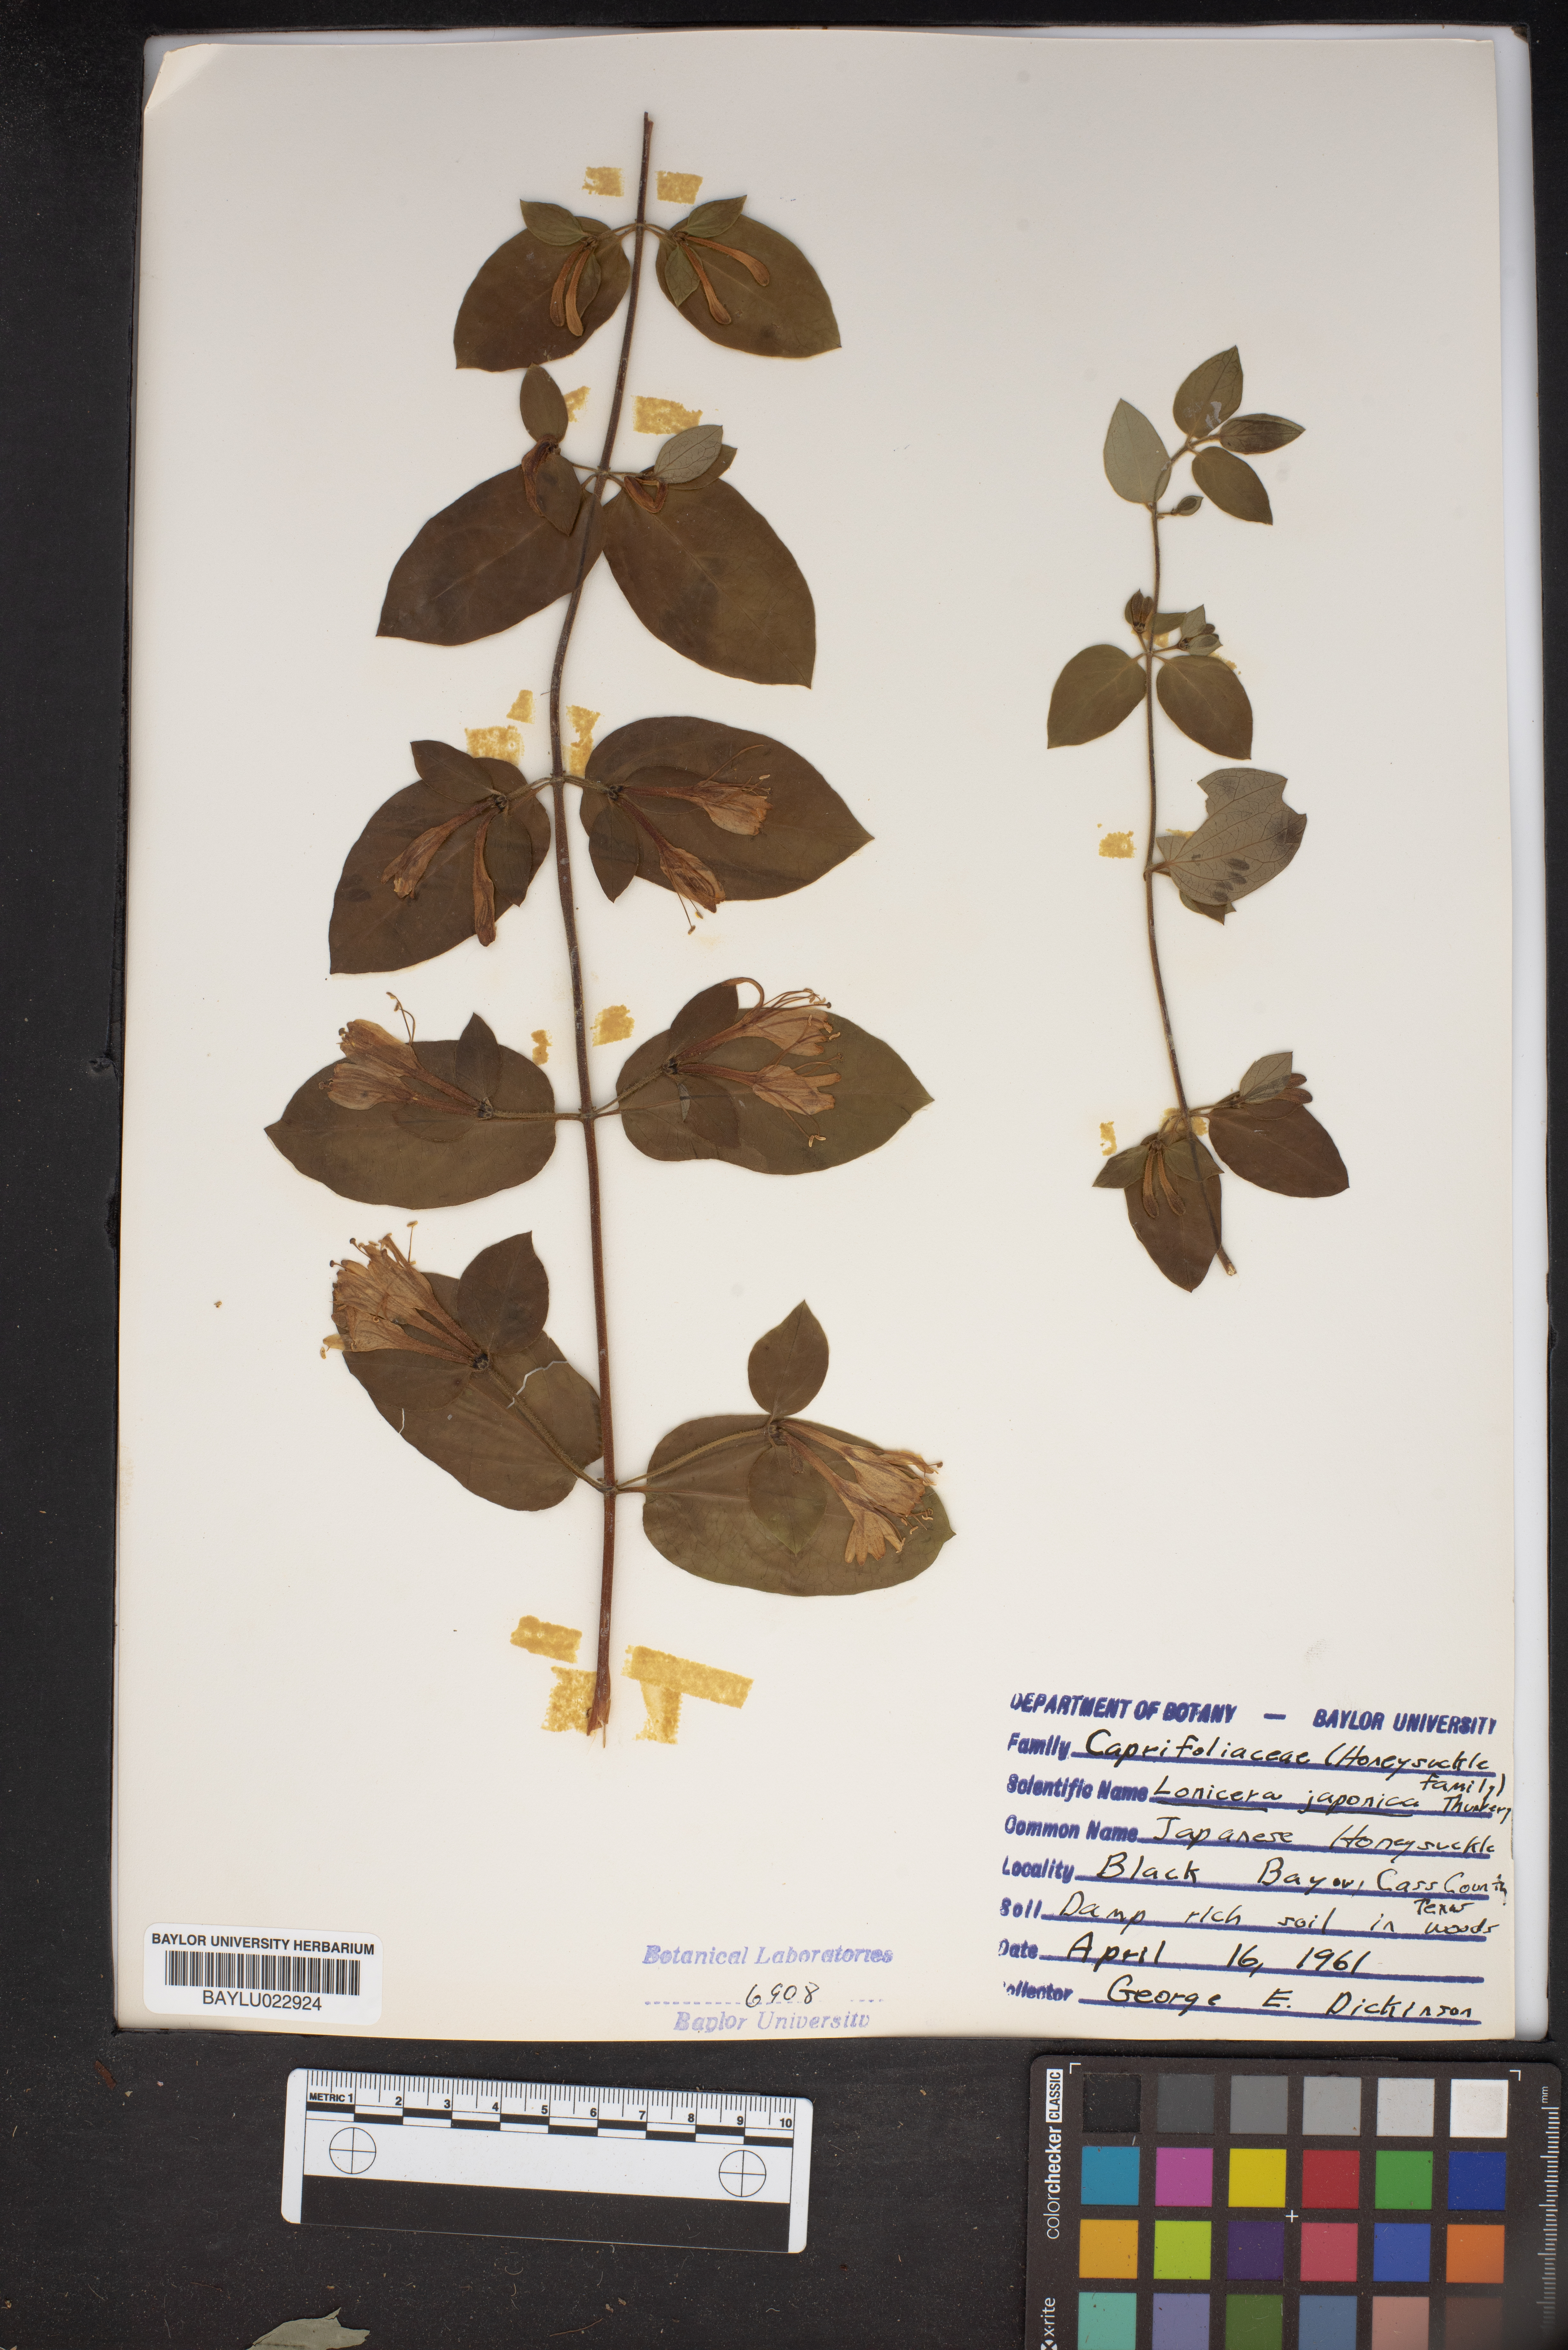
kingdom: Plantae
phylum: Tracheophyta
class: Magnoliopsida
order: Dipsacales
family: Caprifoliaceae
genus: Lonicera
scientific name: Lonicera japonica
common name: Japanese honeysuckle
